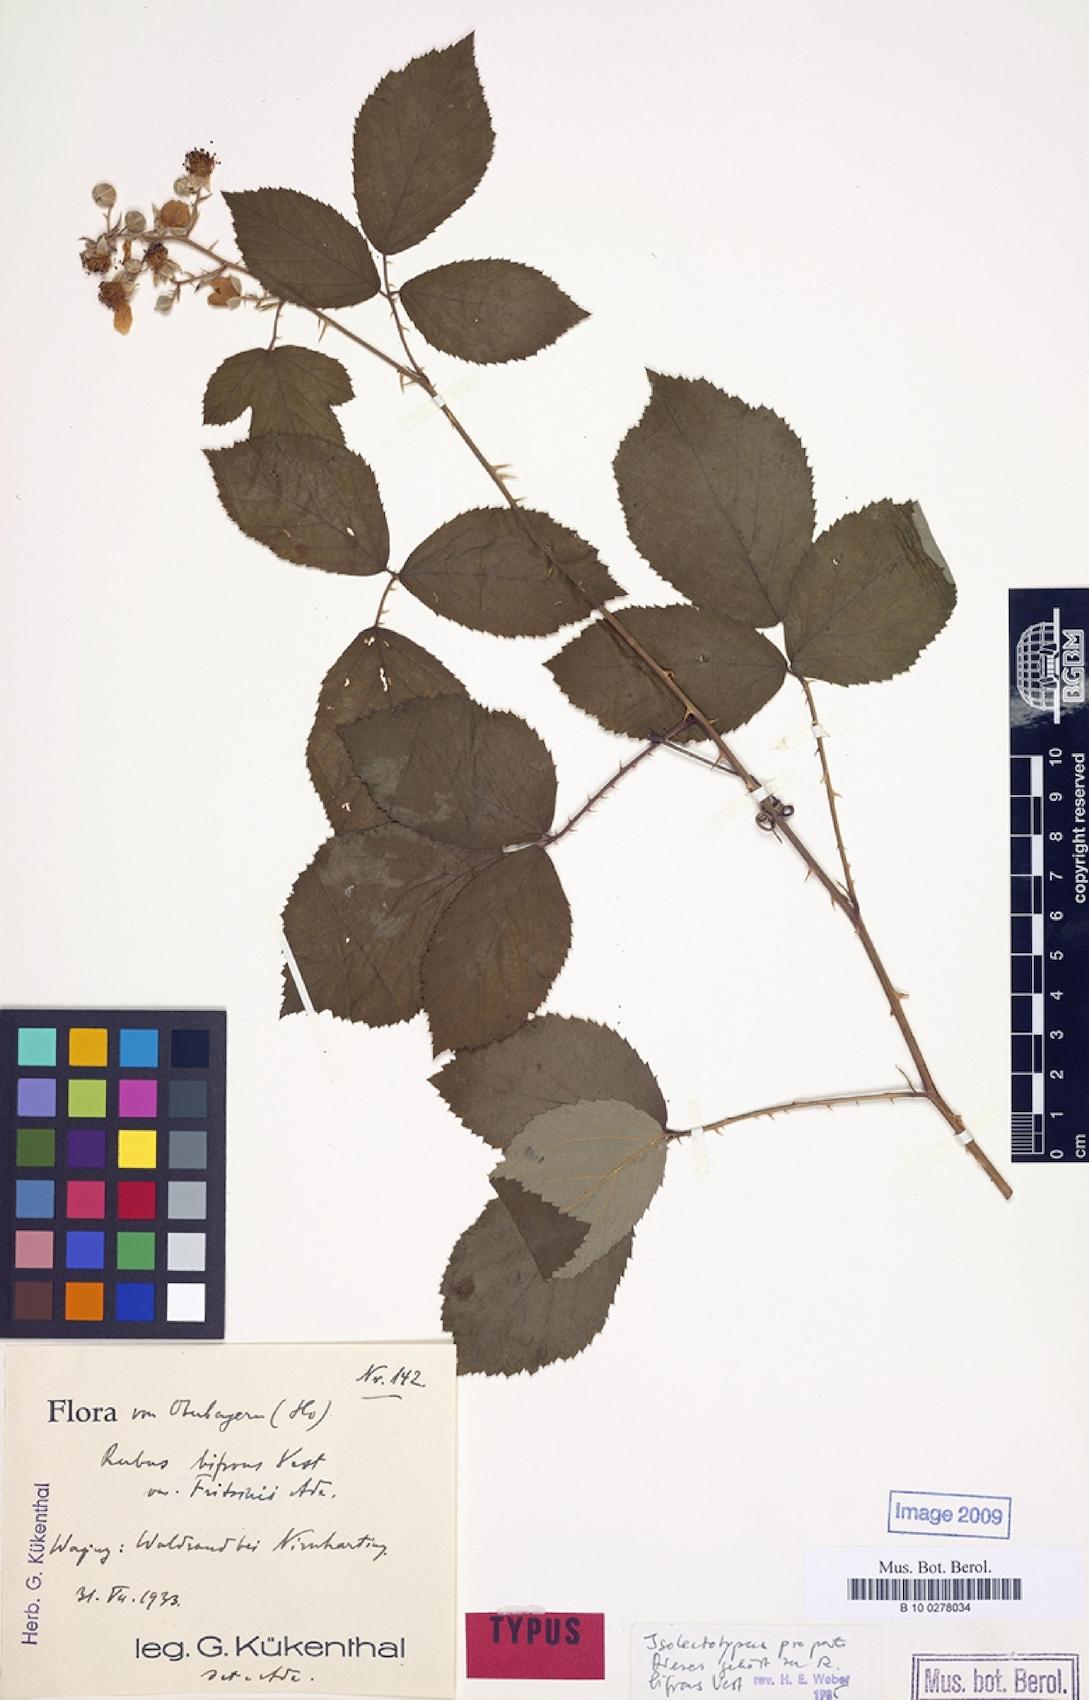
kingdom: Plantae
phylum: Tracheophyta
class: Magnoliopsida
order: Rosales
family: Rosaceae
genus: Rubus
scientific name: Rubus praecox
